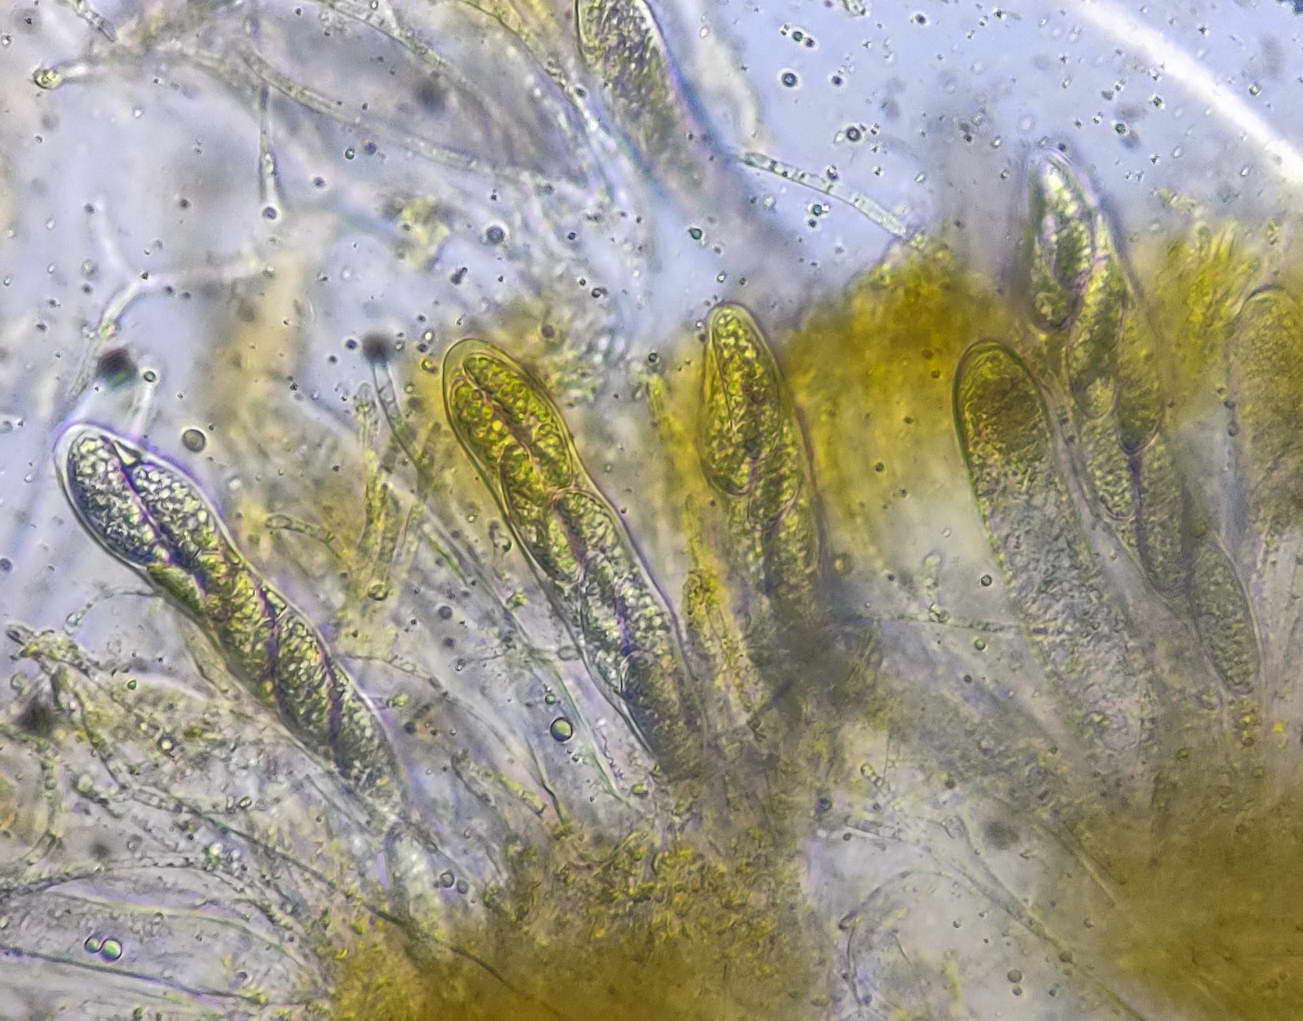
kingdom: Fungi
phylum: Ascomycota
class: Leotiomycetes
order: Helotiales
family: Dermateaceae
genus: Pezicula
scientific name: Pezicula ocellata
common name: tandet klyngeskive
